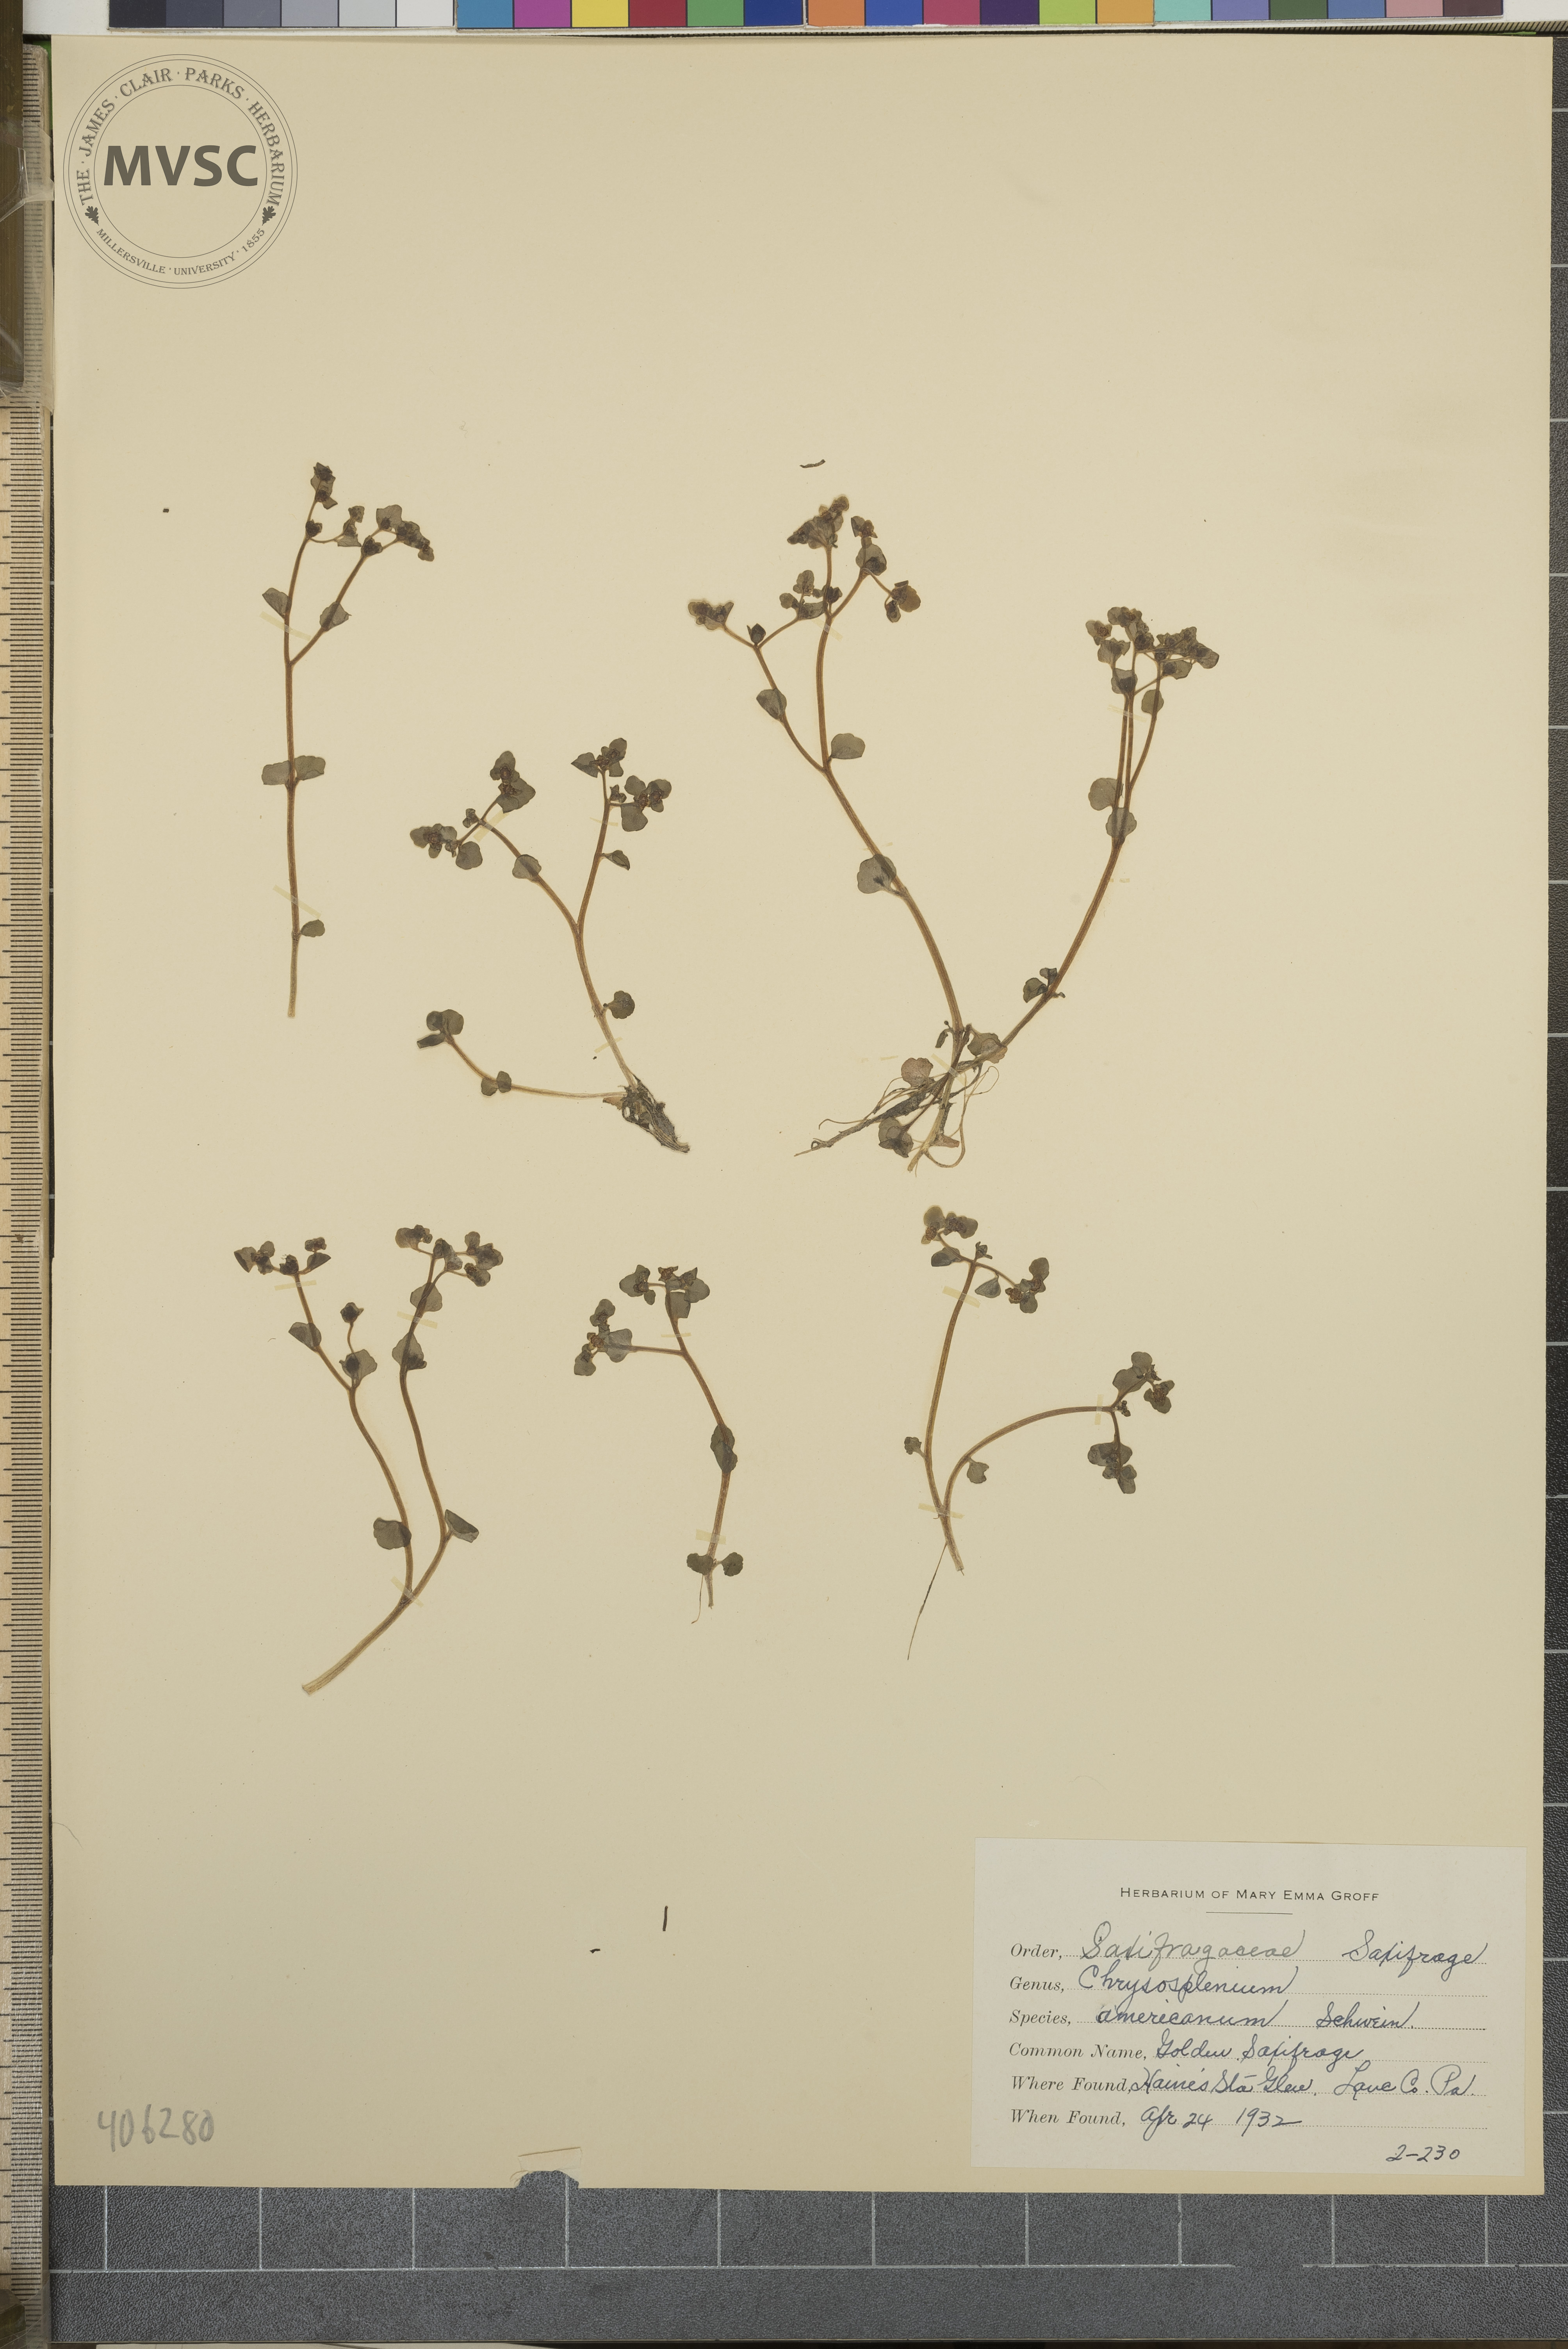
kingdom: Plantae
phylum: Tracheophyta
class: Magnoliopsida
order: Saxifragales
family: Saxifragaceae
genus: Chrysosplenium
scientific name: Chrysosplenium americanum
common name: American golden-saxifrage
